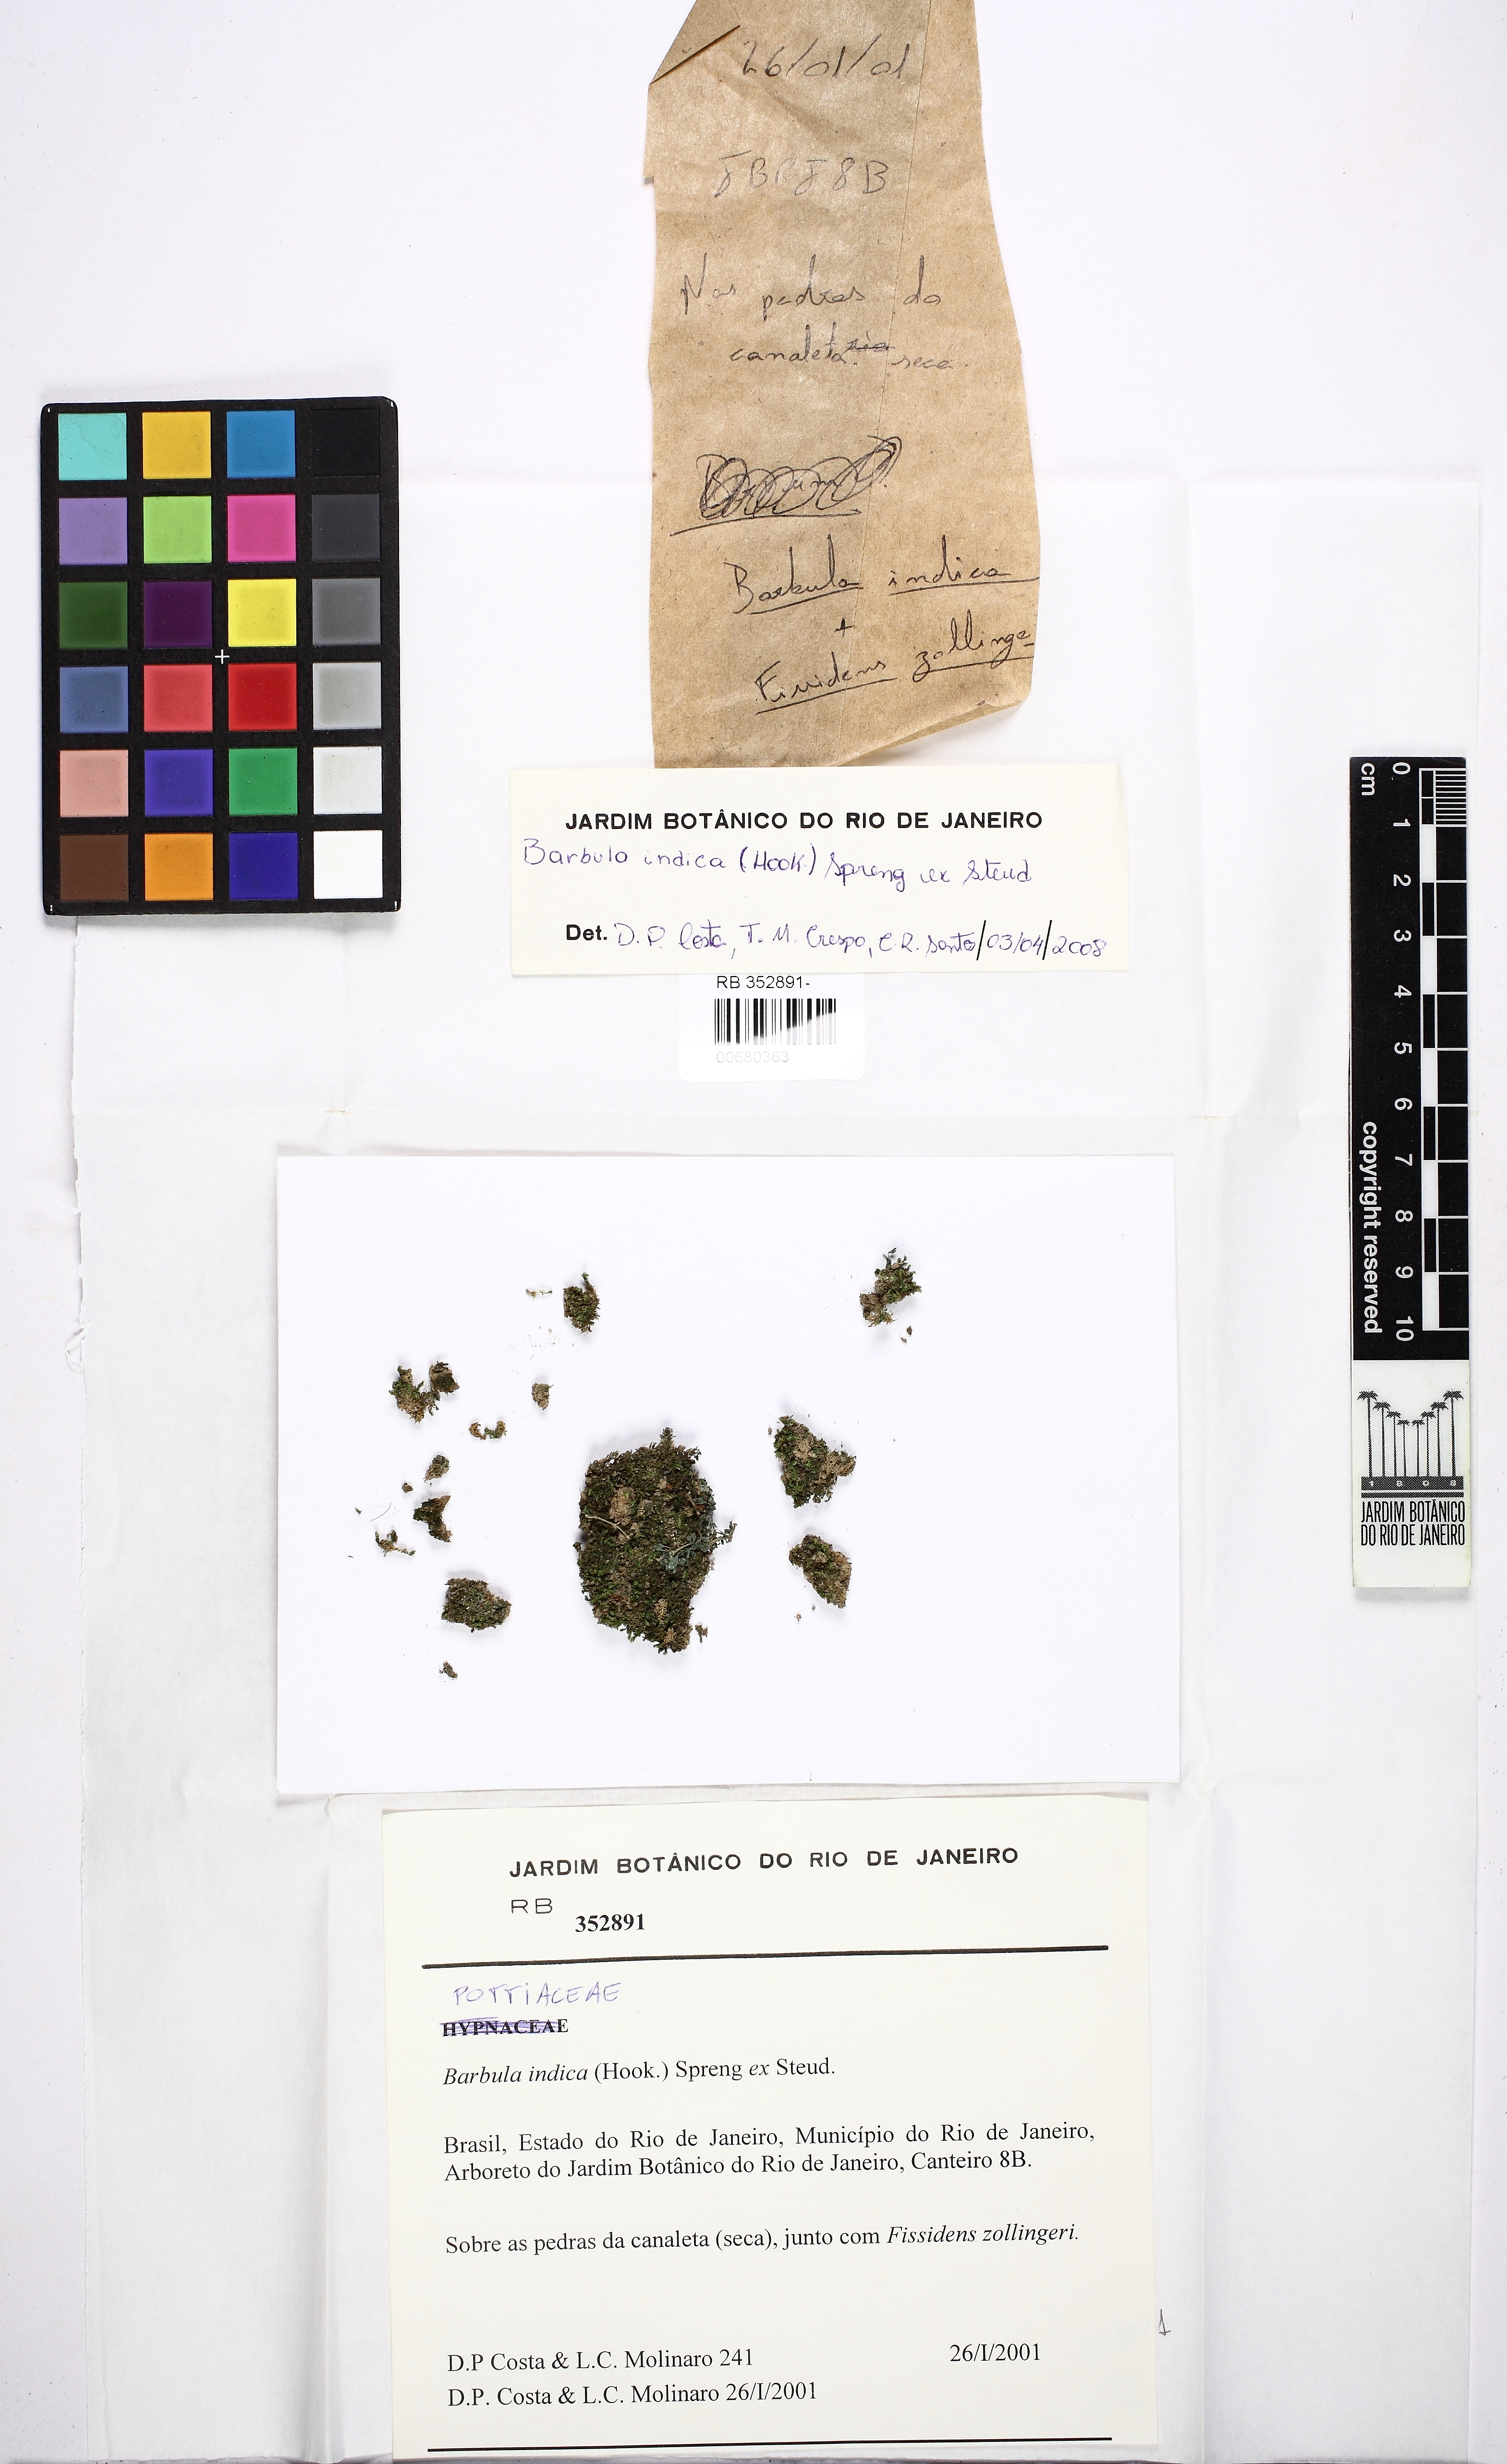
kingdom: Plantae
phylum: Bryophyta
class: Bryopsida
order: Grimmiales
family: Ptychomitriaceae
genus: Ptychomitrium
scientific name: Ptychomitrium indicum
